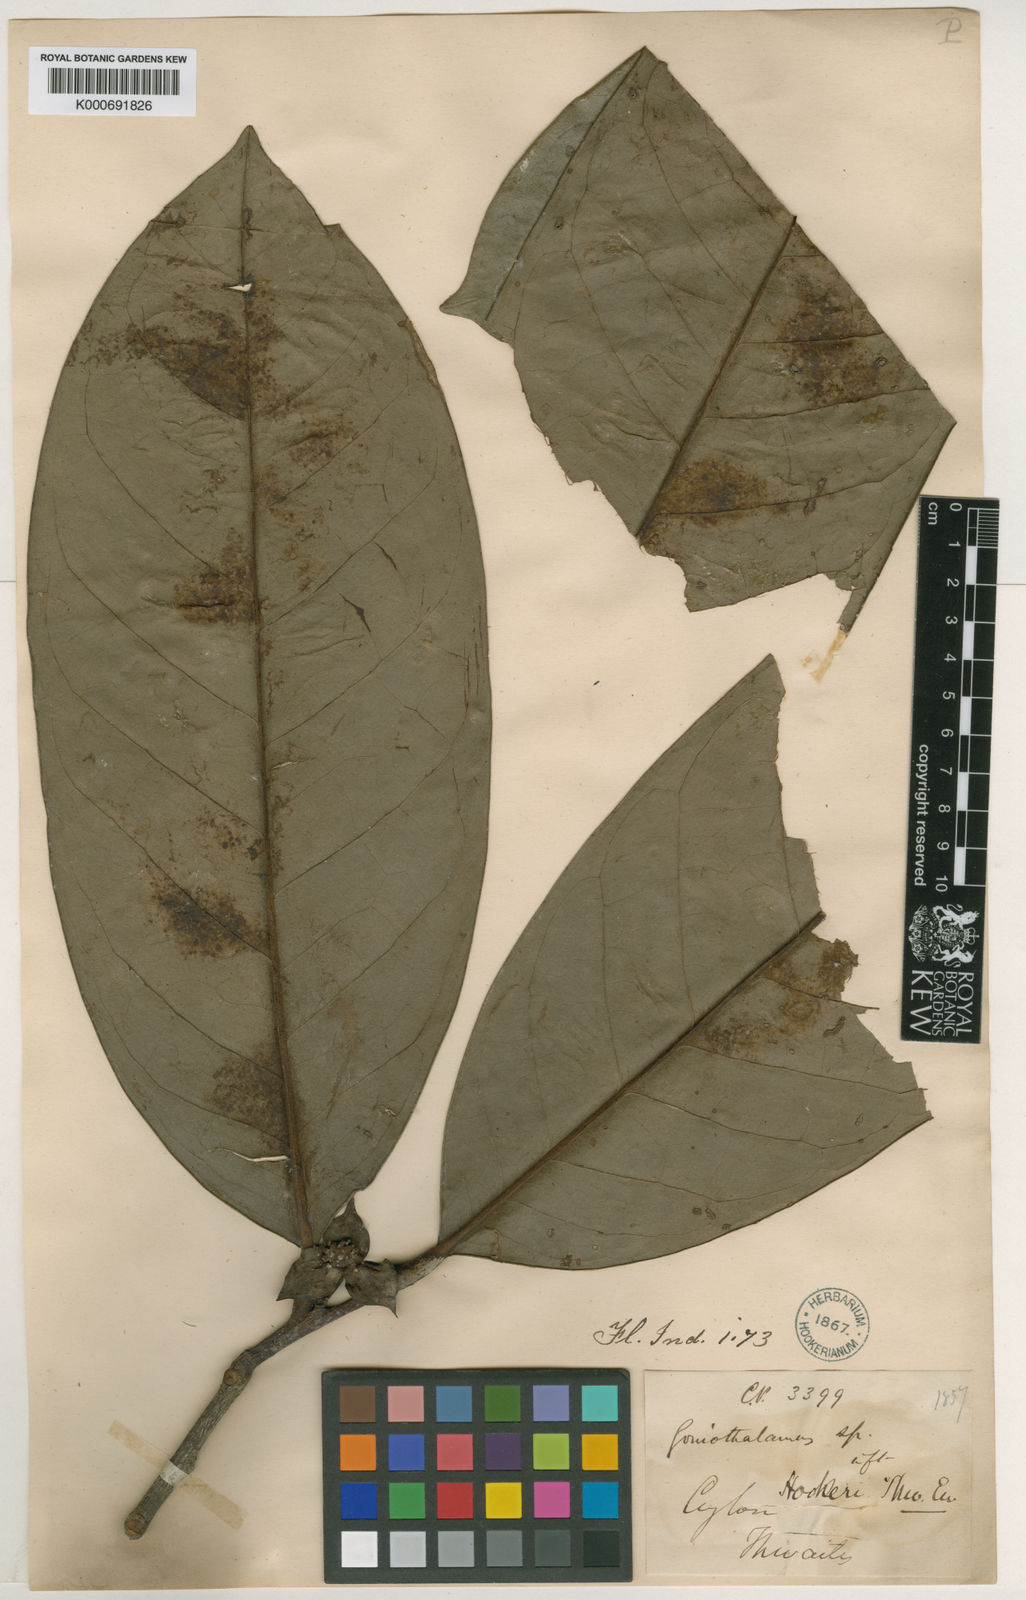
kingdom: Plantae
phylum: Tracheophyta
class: Magnoliopsida
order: Magnoliales
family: Annonaceae
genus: Goniothalamus
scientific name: Goniothalamus hookeri
